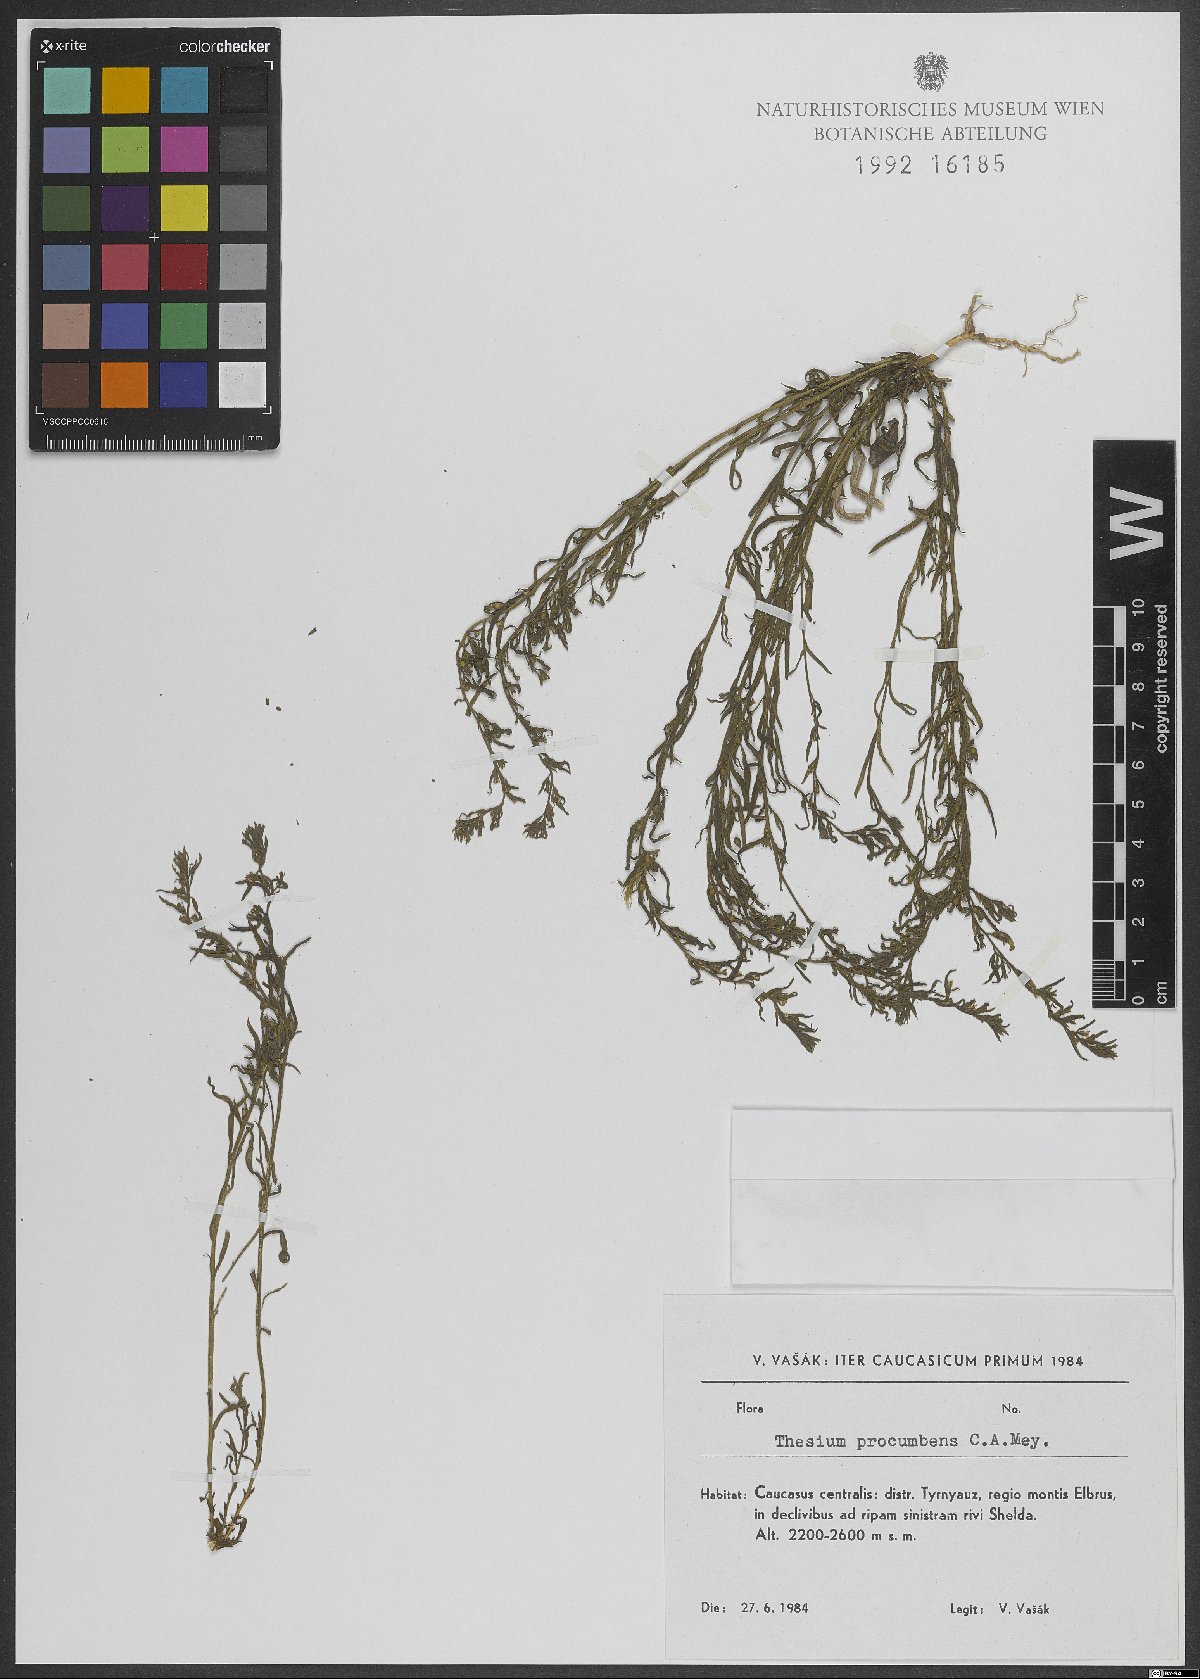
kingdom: Plantae
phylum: Tracheophyta
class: Magnoliopsida
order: Santalales
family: Thesiaceae
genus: Thesium
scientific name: Thesium procumbens
